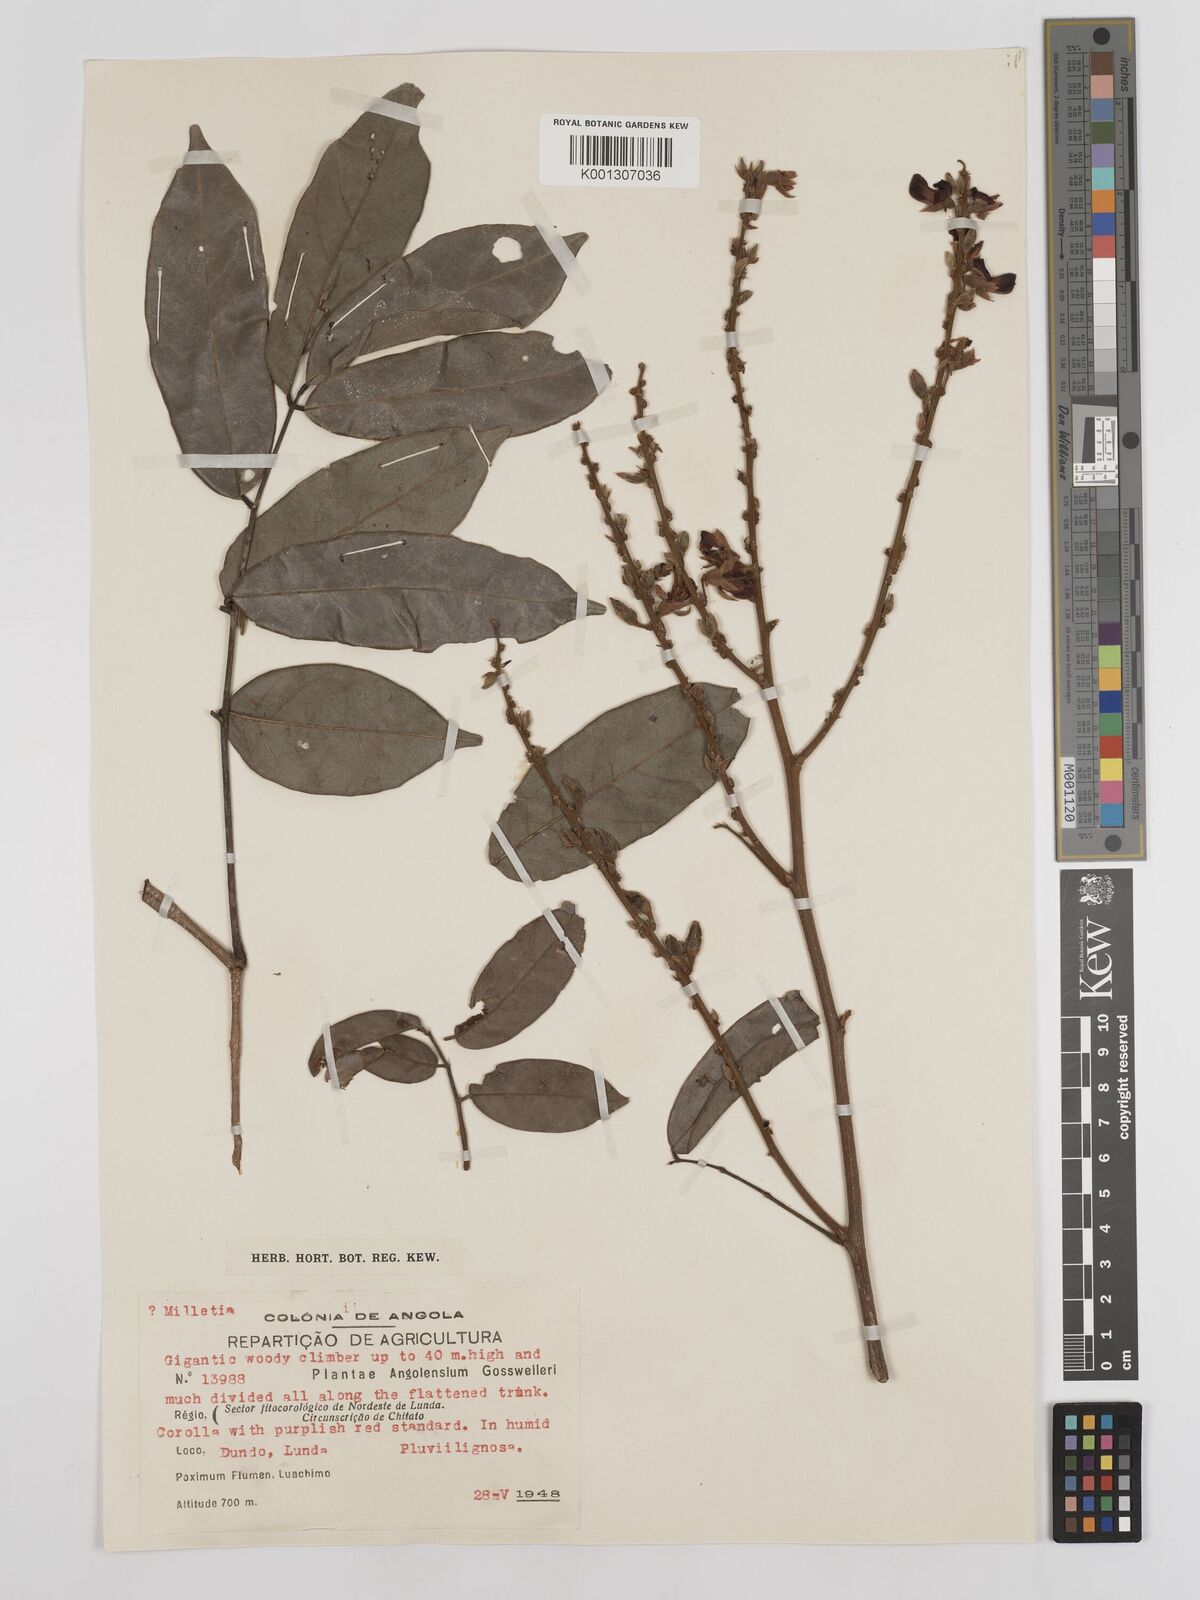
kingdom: Plantae
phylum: Tracheophyta
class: Magnoliopsida
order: Fabales
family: Fabaceae
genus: Millettia
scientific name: Millettia
